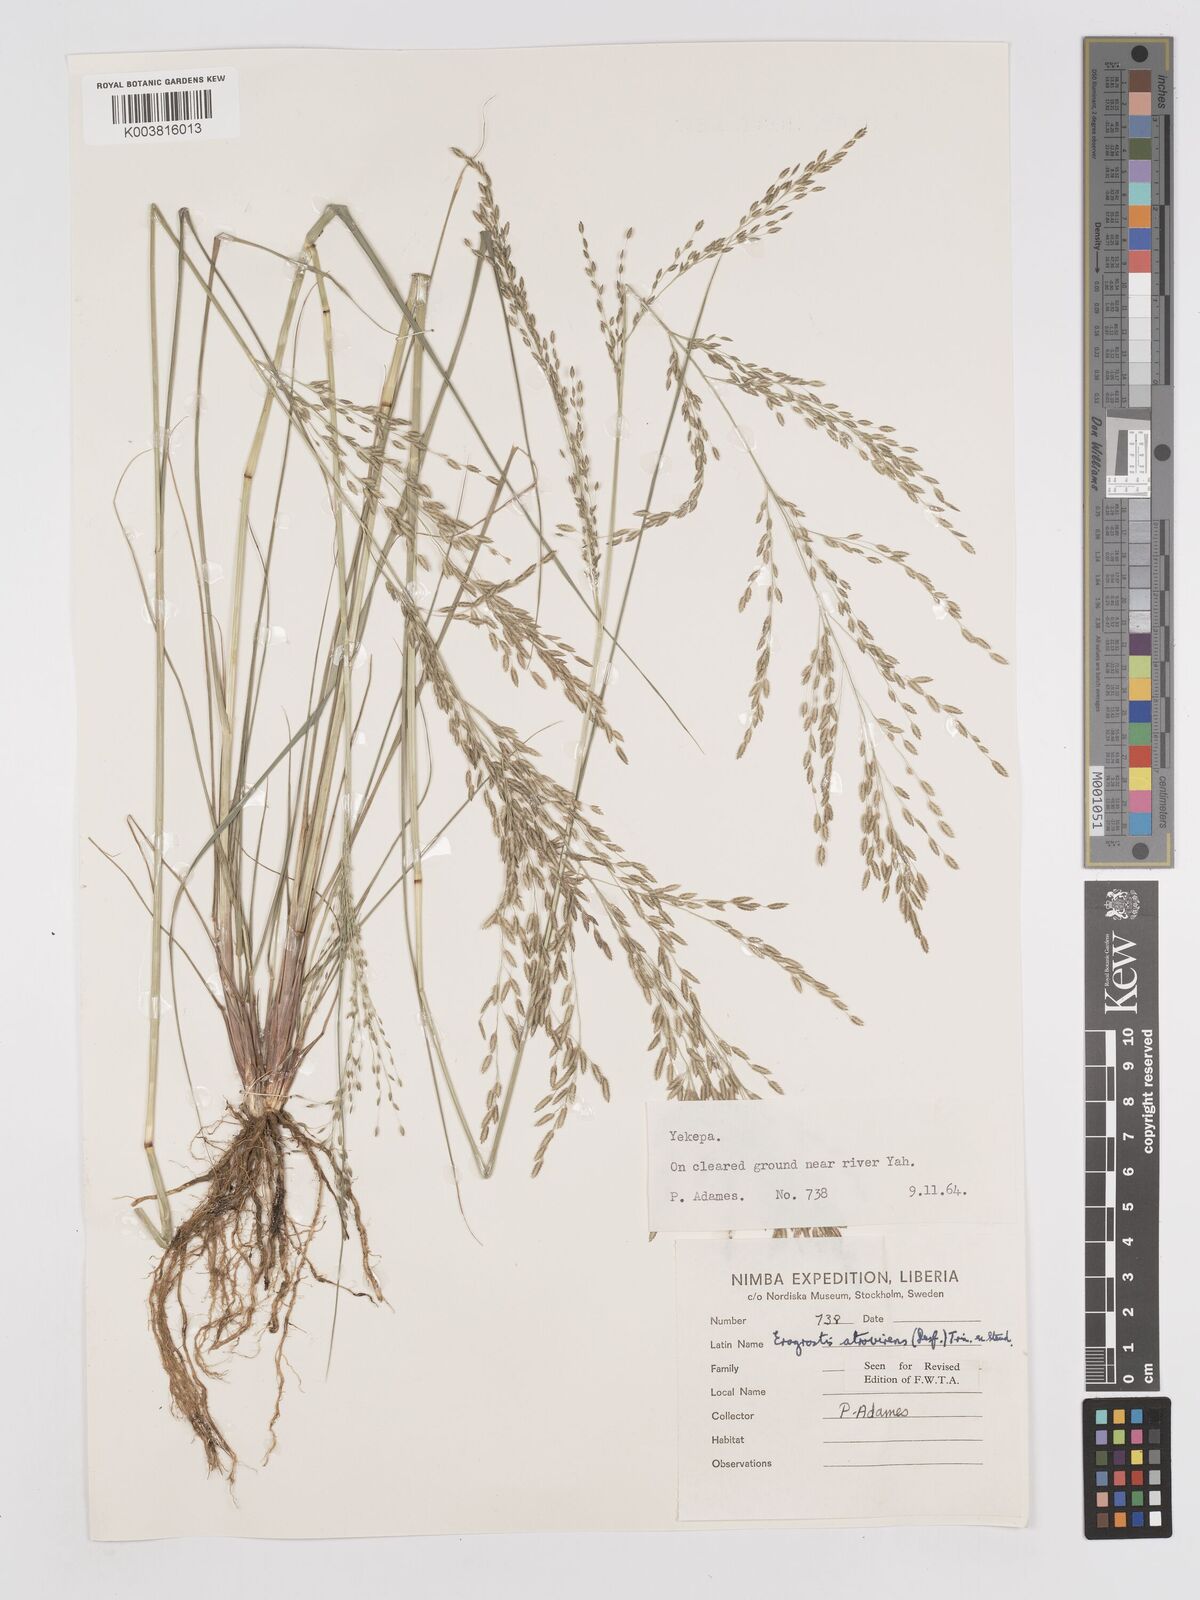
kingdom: Plantae
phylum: Tracheophyta
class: Liliopsida
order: Poales
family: Poaceae
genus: Eragrostis
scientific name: Eragrostis atrovirens
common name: Thalia lovegrass
